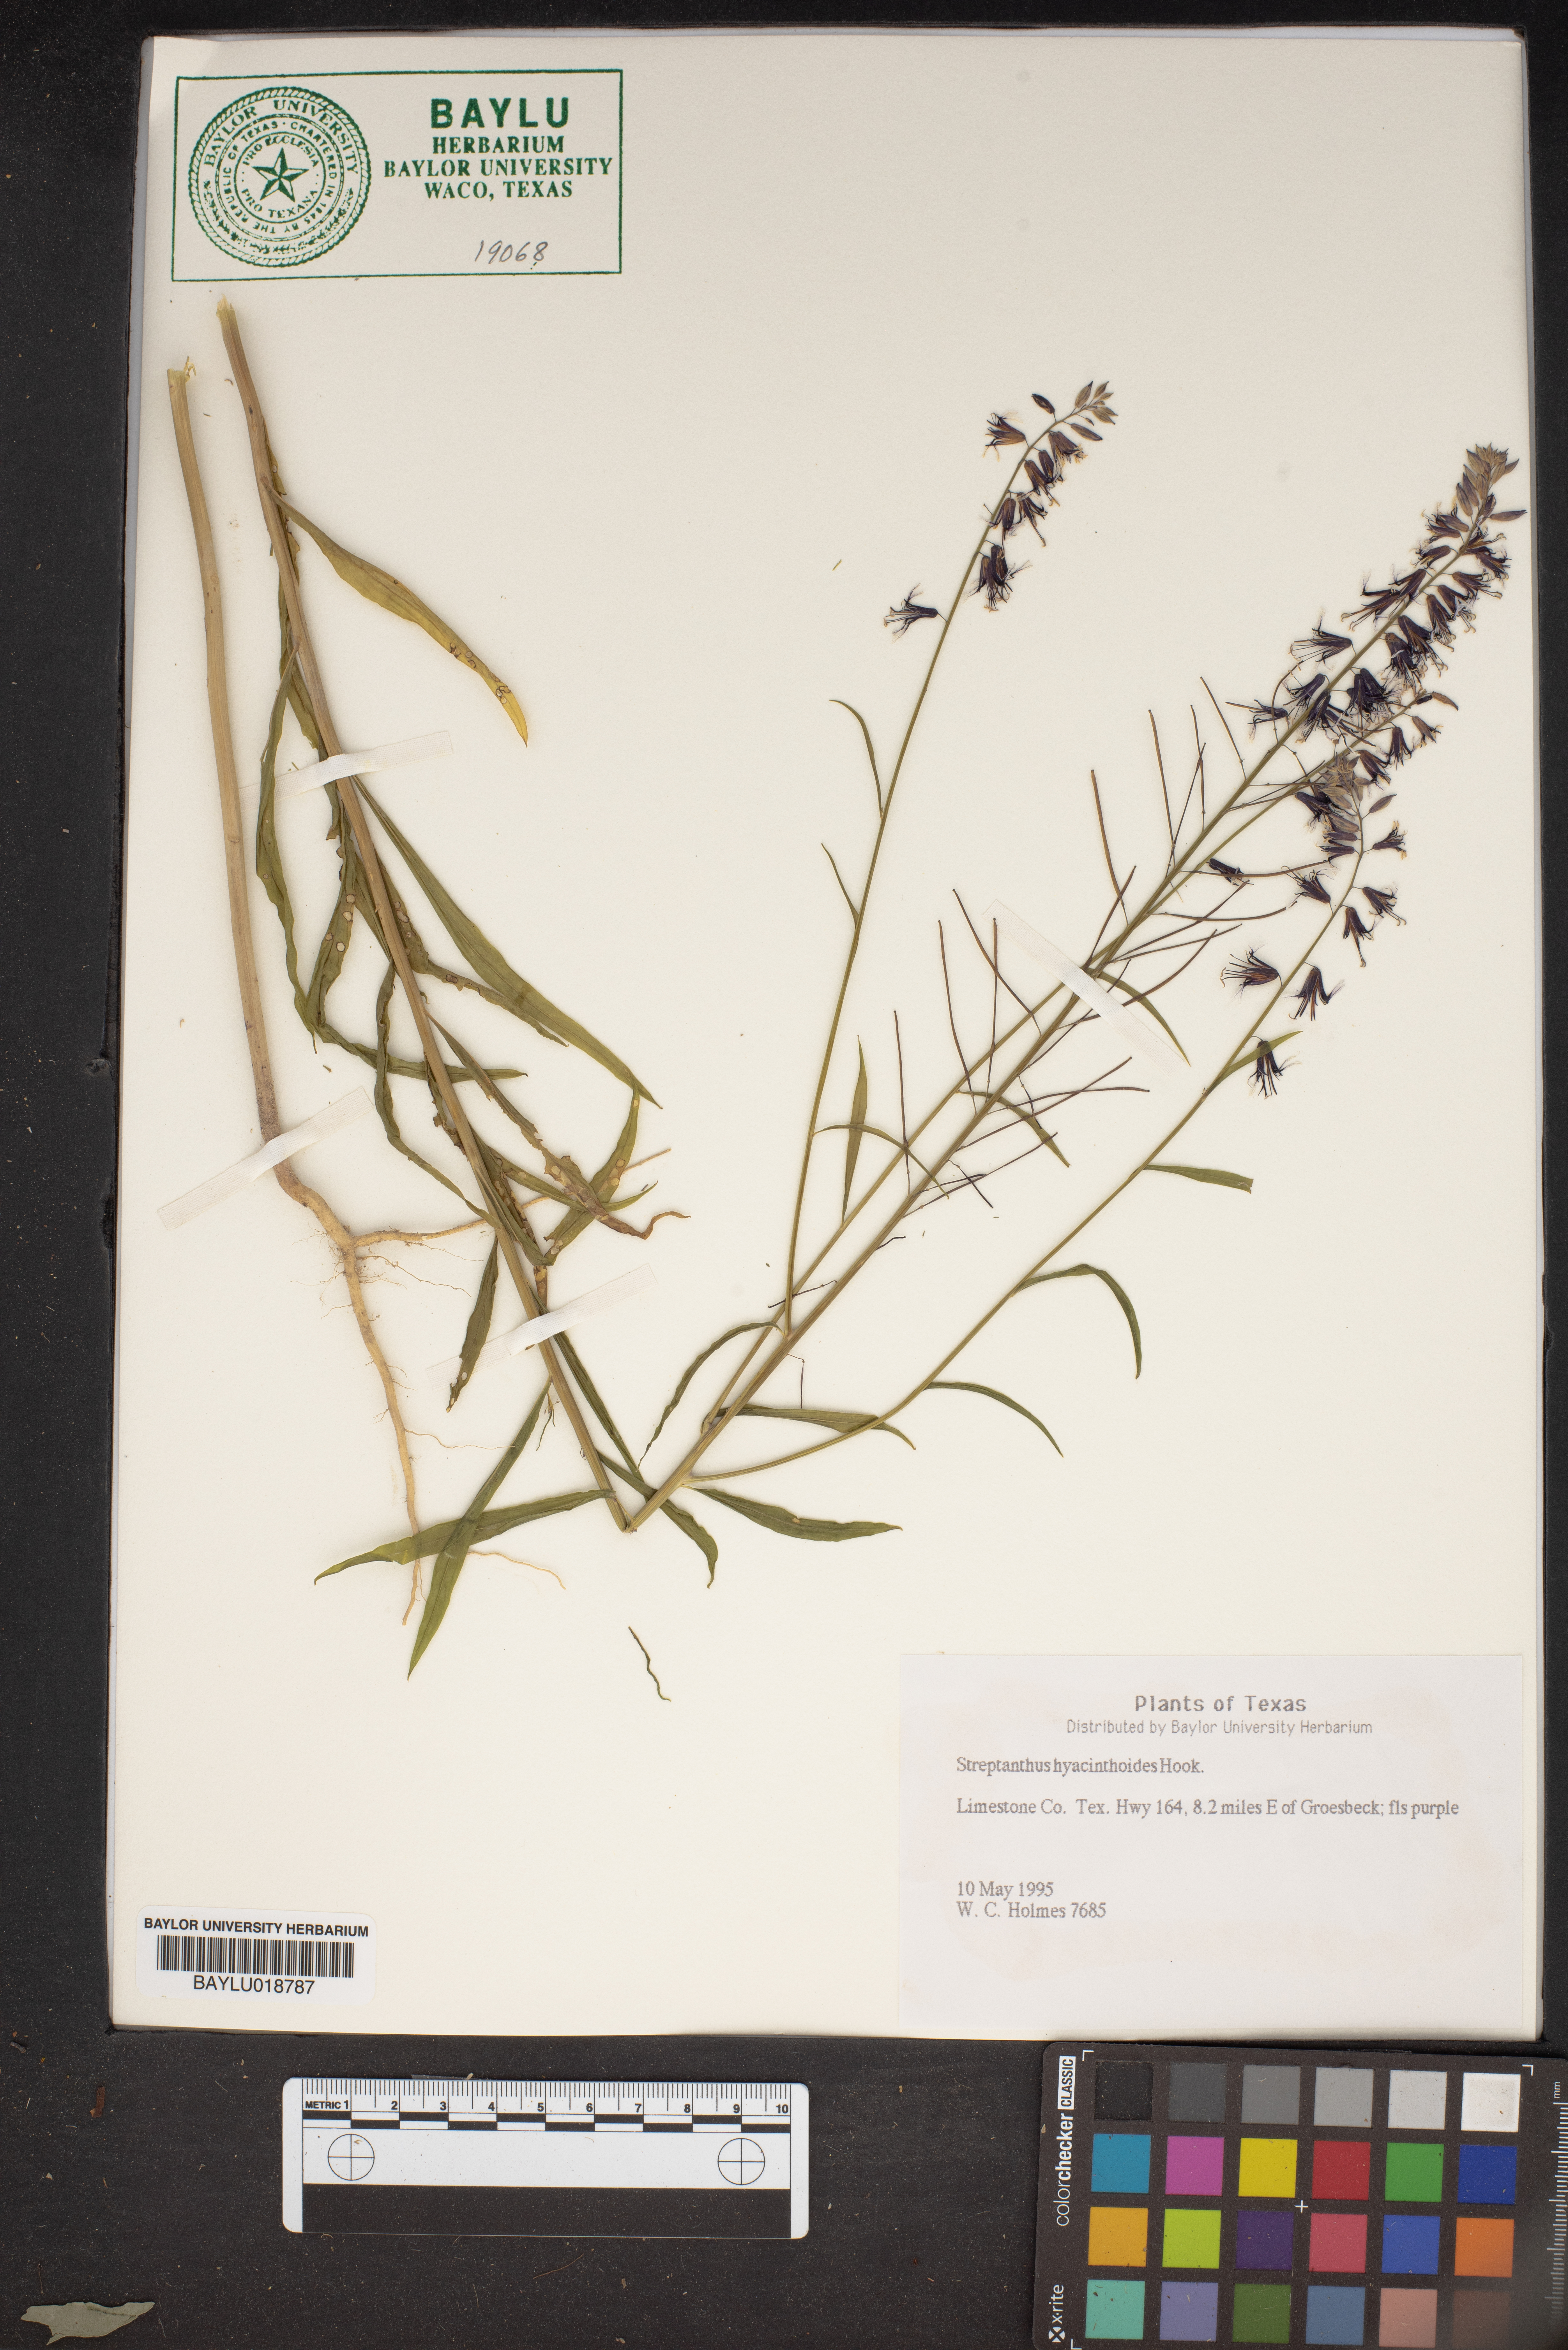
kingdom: Plantae
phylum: Tracheophyta
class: Magnoliopsida
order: Brassicales
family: Brassicaceae
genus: Streptanthus
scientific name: Streptanthus hyacinthoides
